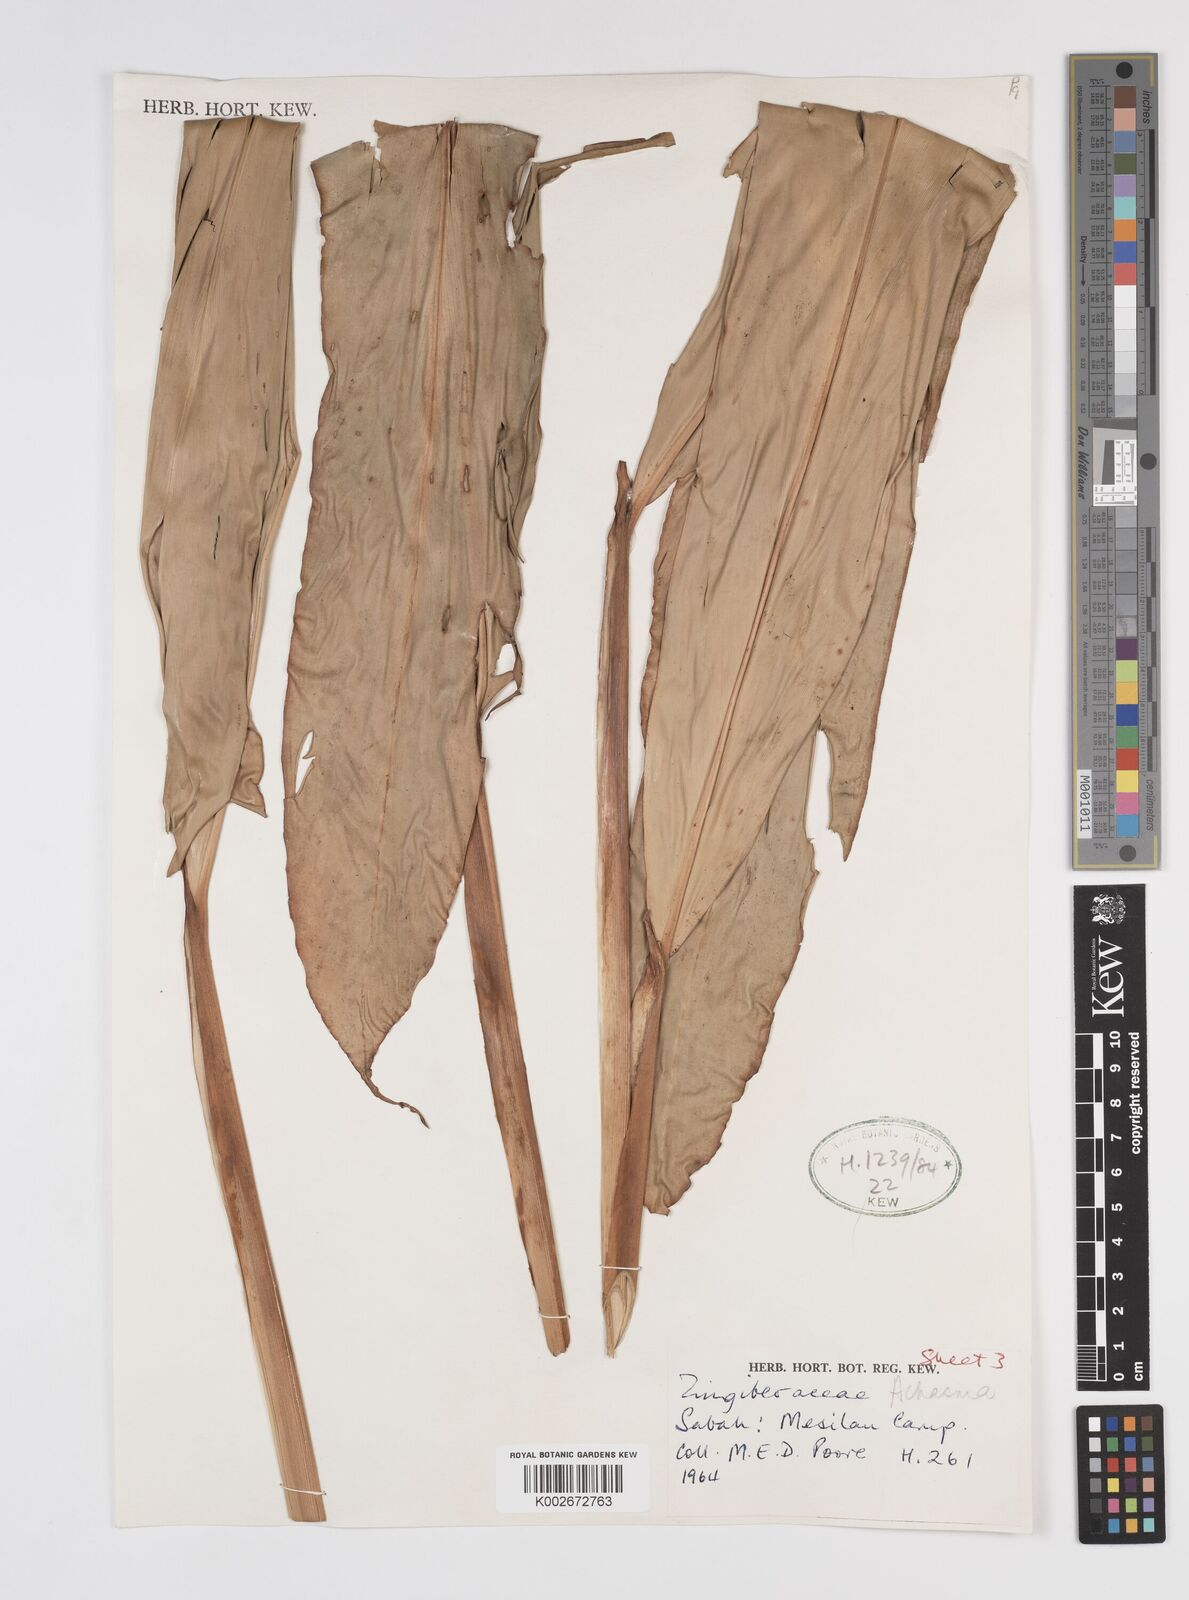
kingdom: Plantae
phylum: Tracheophyta
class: Liliopsida
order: Zingiberales
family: Zingiberaceae
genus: Etlingera
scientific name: Etlingera punicea
